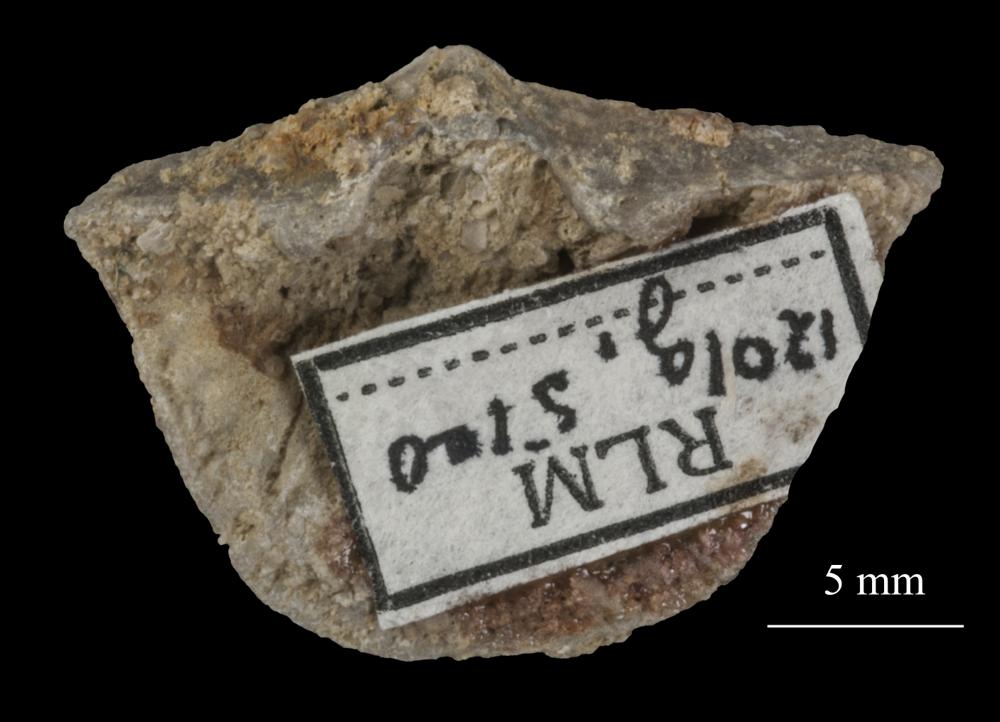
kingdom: Animalia
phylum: Brachiopoda
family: Gonambonitidae
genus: Estlandia
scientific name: Estlandia Orthisina marginata
